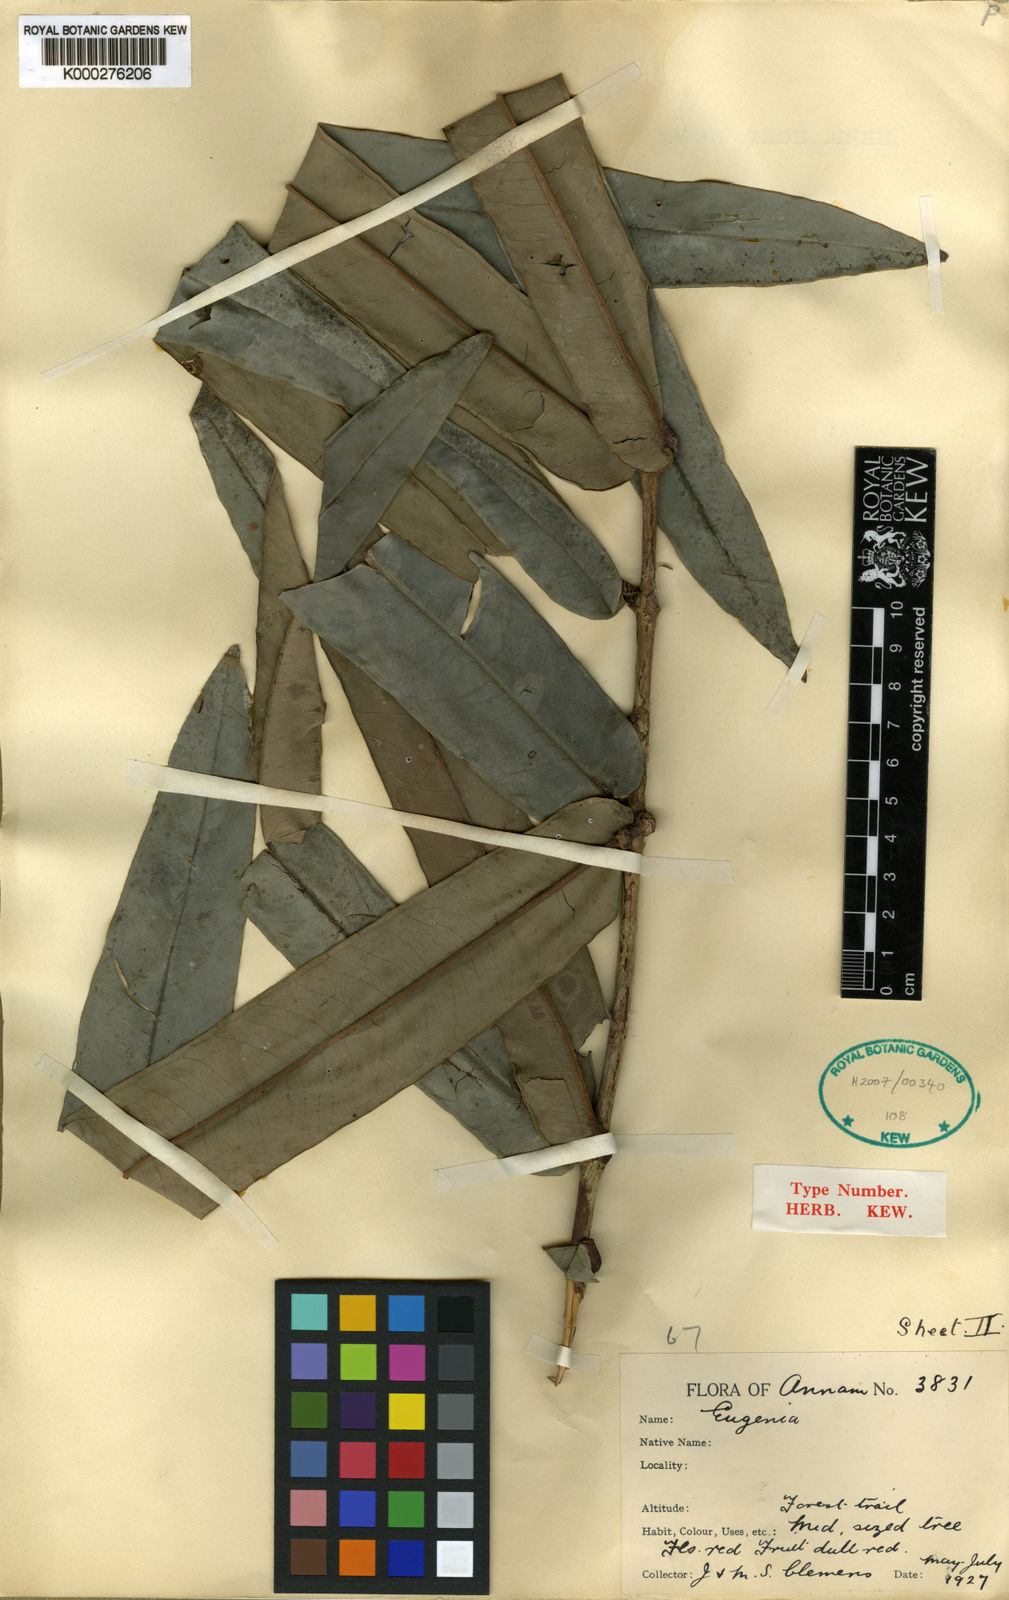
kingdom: Plantae
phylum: Tracheophyta
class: Magnoliopsida
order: Myrtales
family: Myrtaceae
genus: Syzygium
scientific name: Syzygium crassiflorum
